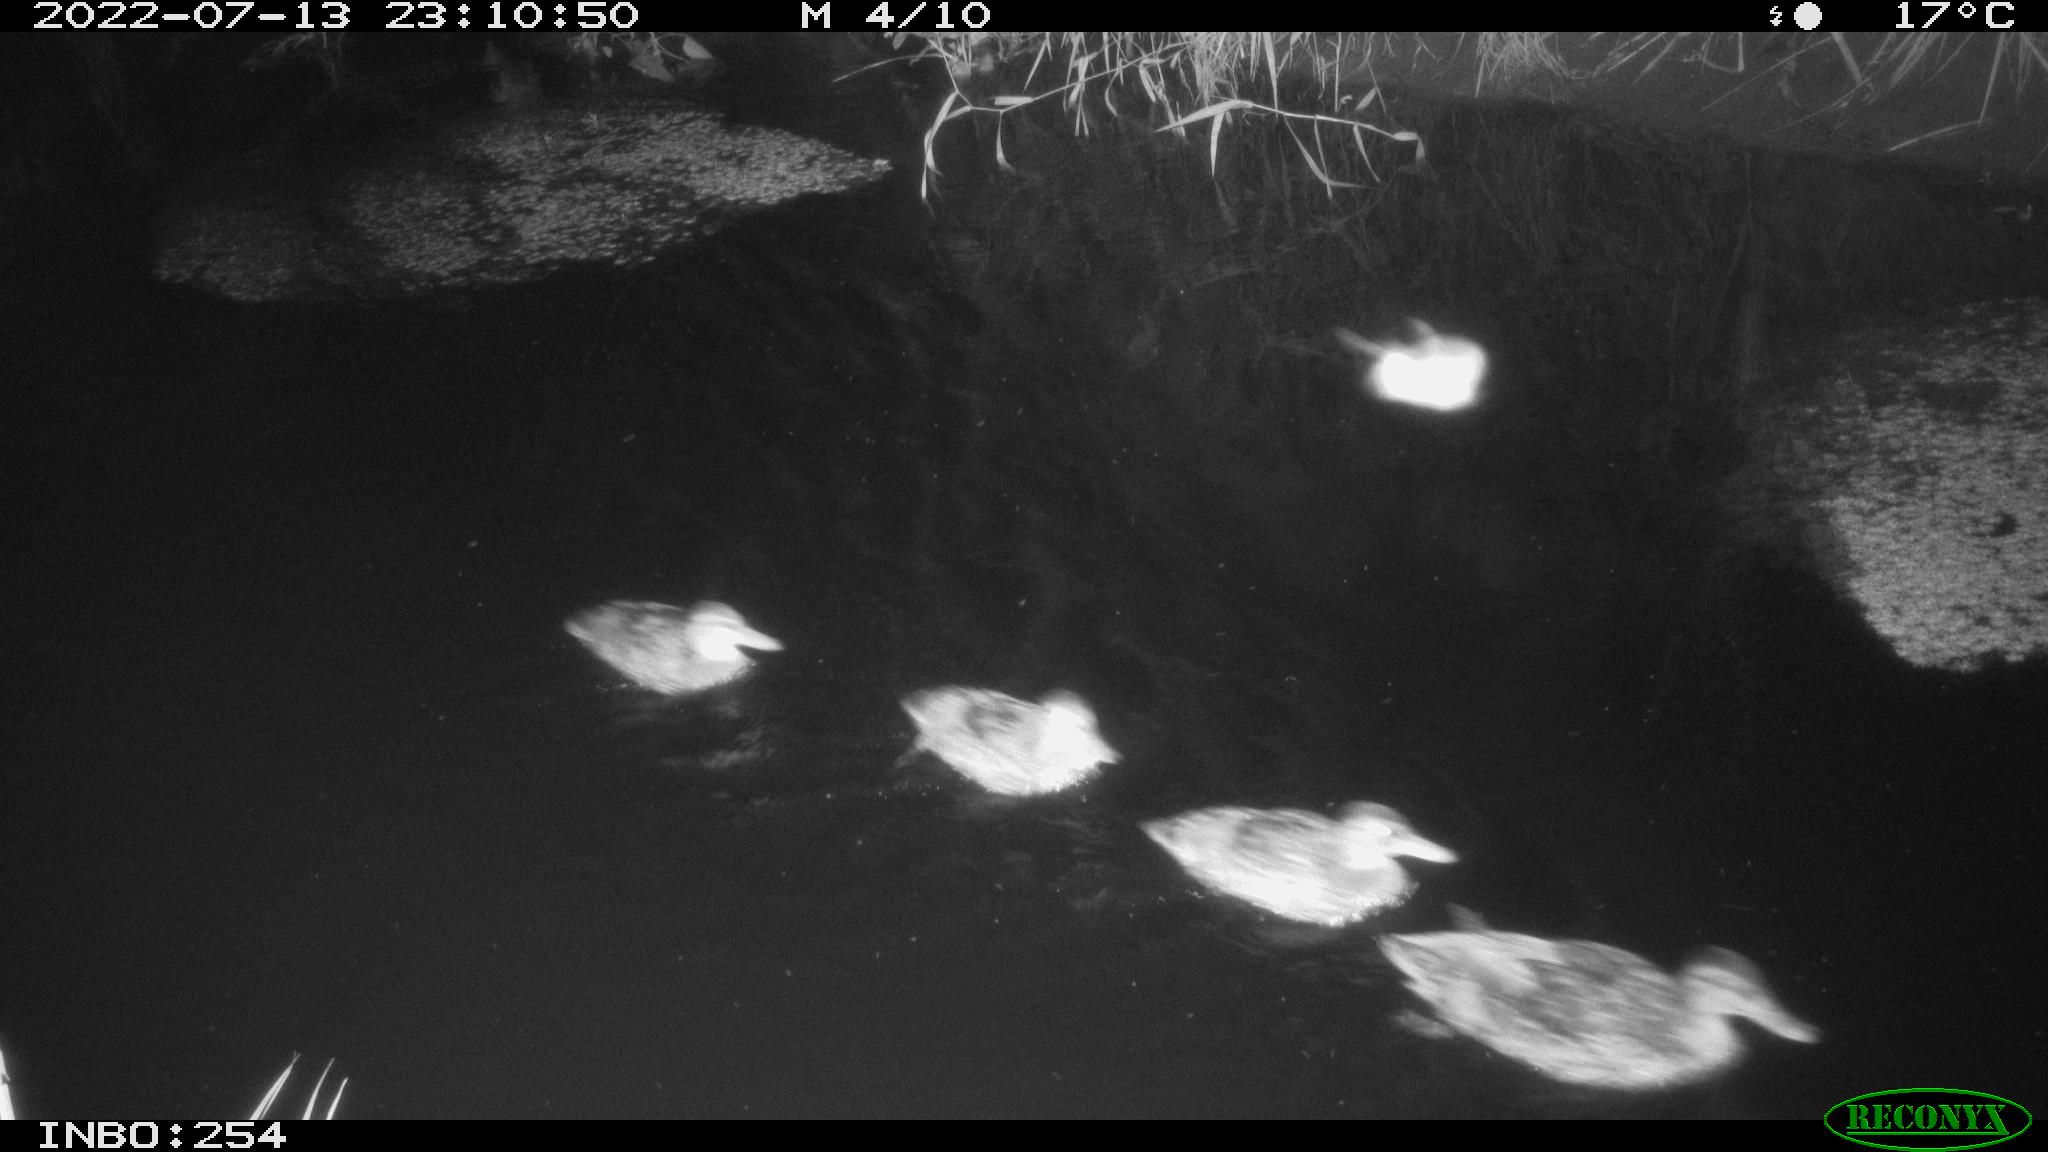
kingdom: Animalia
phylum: Chordata
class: Aves
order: Anseriformes
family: Anatidae
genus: Anas
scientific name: Anas platyrhynchos
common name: Mallard
